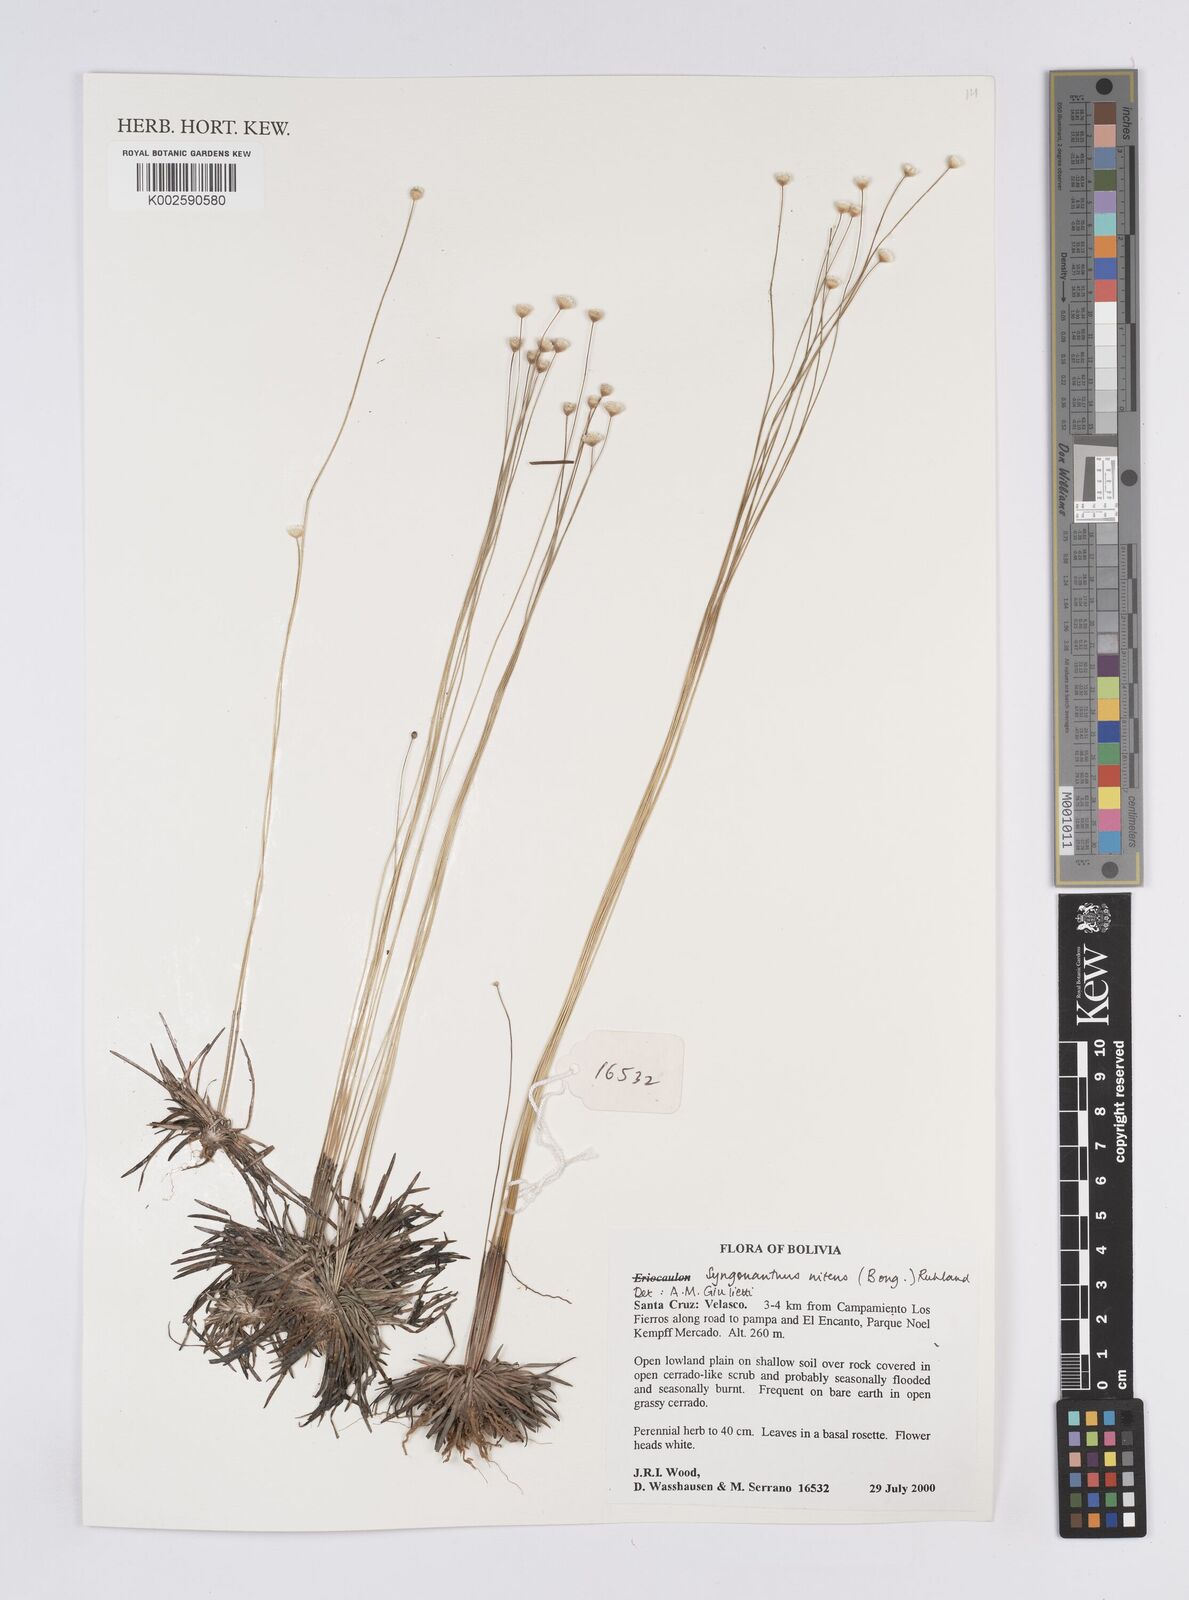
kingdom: Plantae
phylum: Tracheophyta
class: Liliopsida
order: Poales
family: Eriocaulaceae
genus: Syngonanthus
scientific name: Syngonanthus nitens
